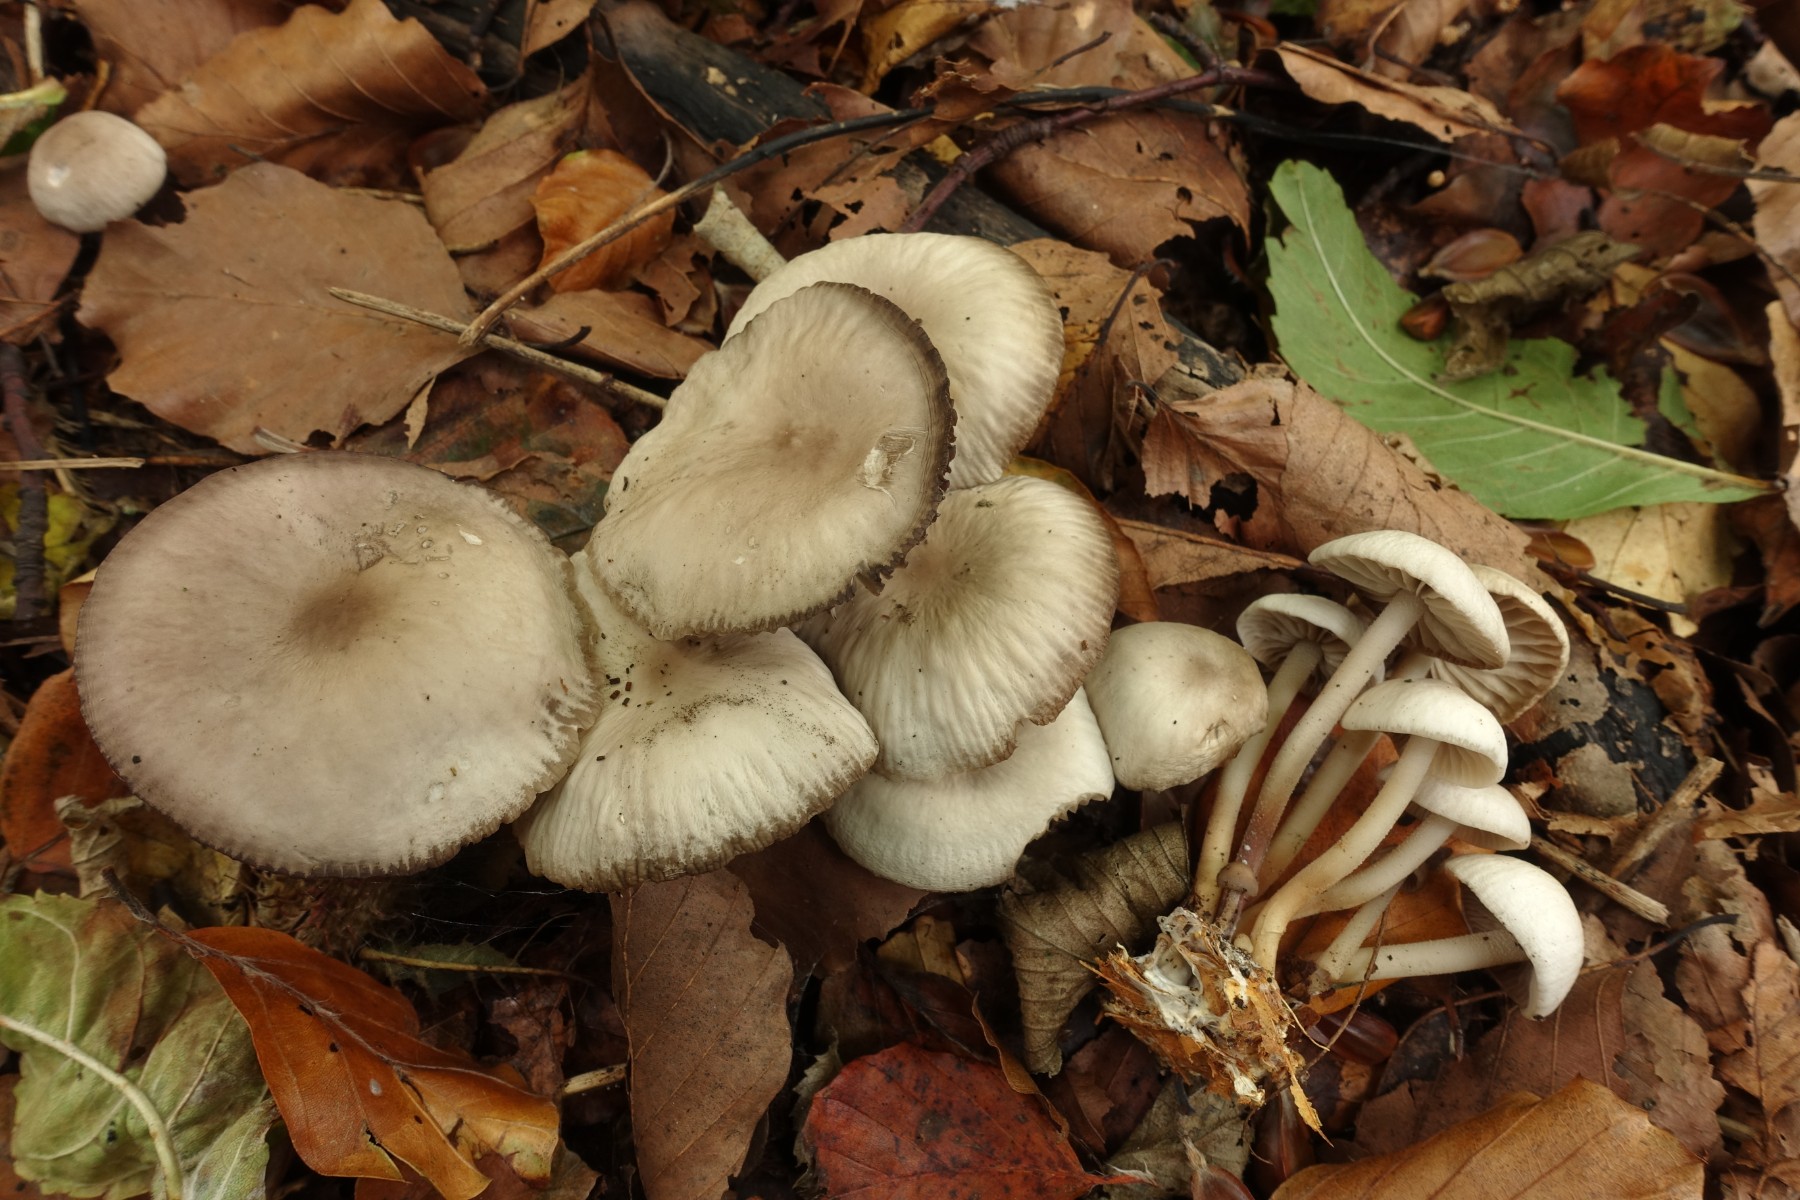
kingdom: Fungi
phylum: Basidiomycota
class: Agaricomycetes
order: Agaricales
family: Marasmiaceae
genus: Marasmius
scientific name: Marasmius wynneae
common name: hvælvet bruskhat
